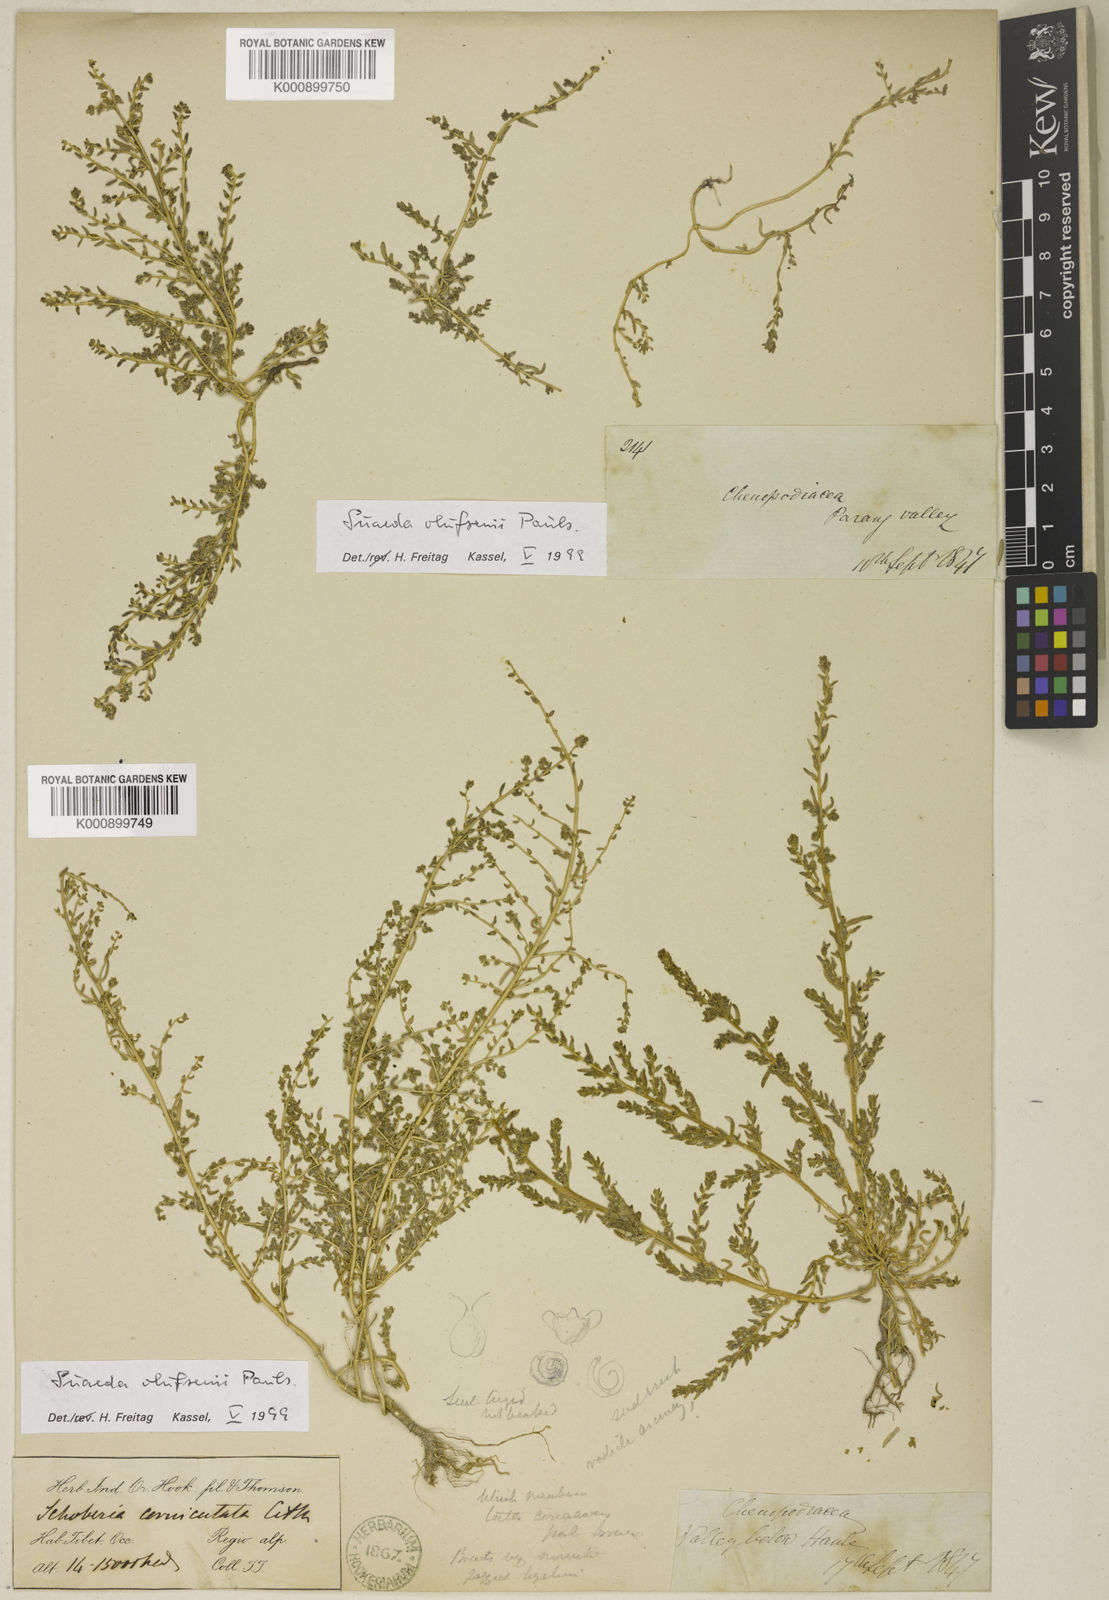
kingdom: Plantae
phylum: Tracheophyta
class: Magnoliopsida
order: Caryophyllales
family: Amaranthaceae
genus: Suaeda
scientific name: Suaeda olufsenii
